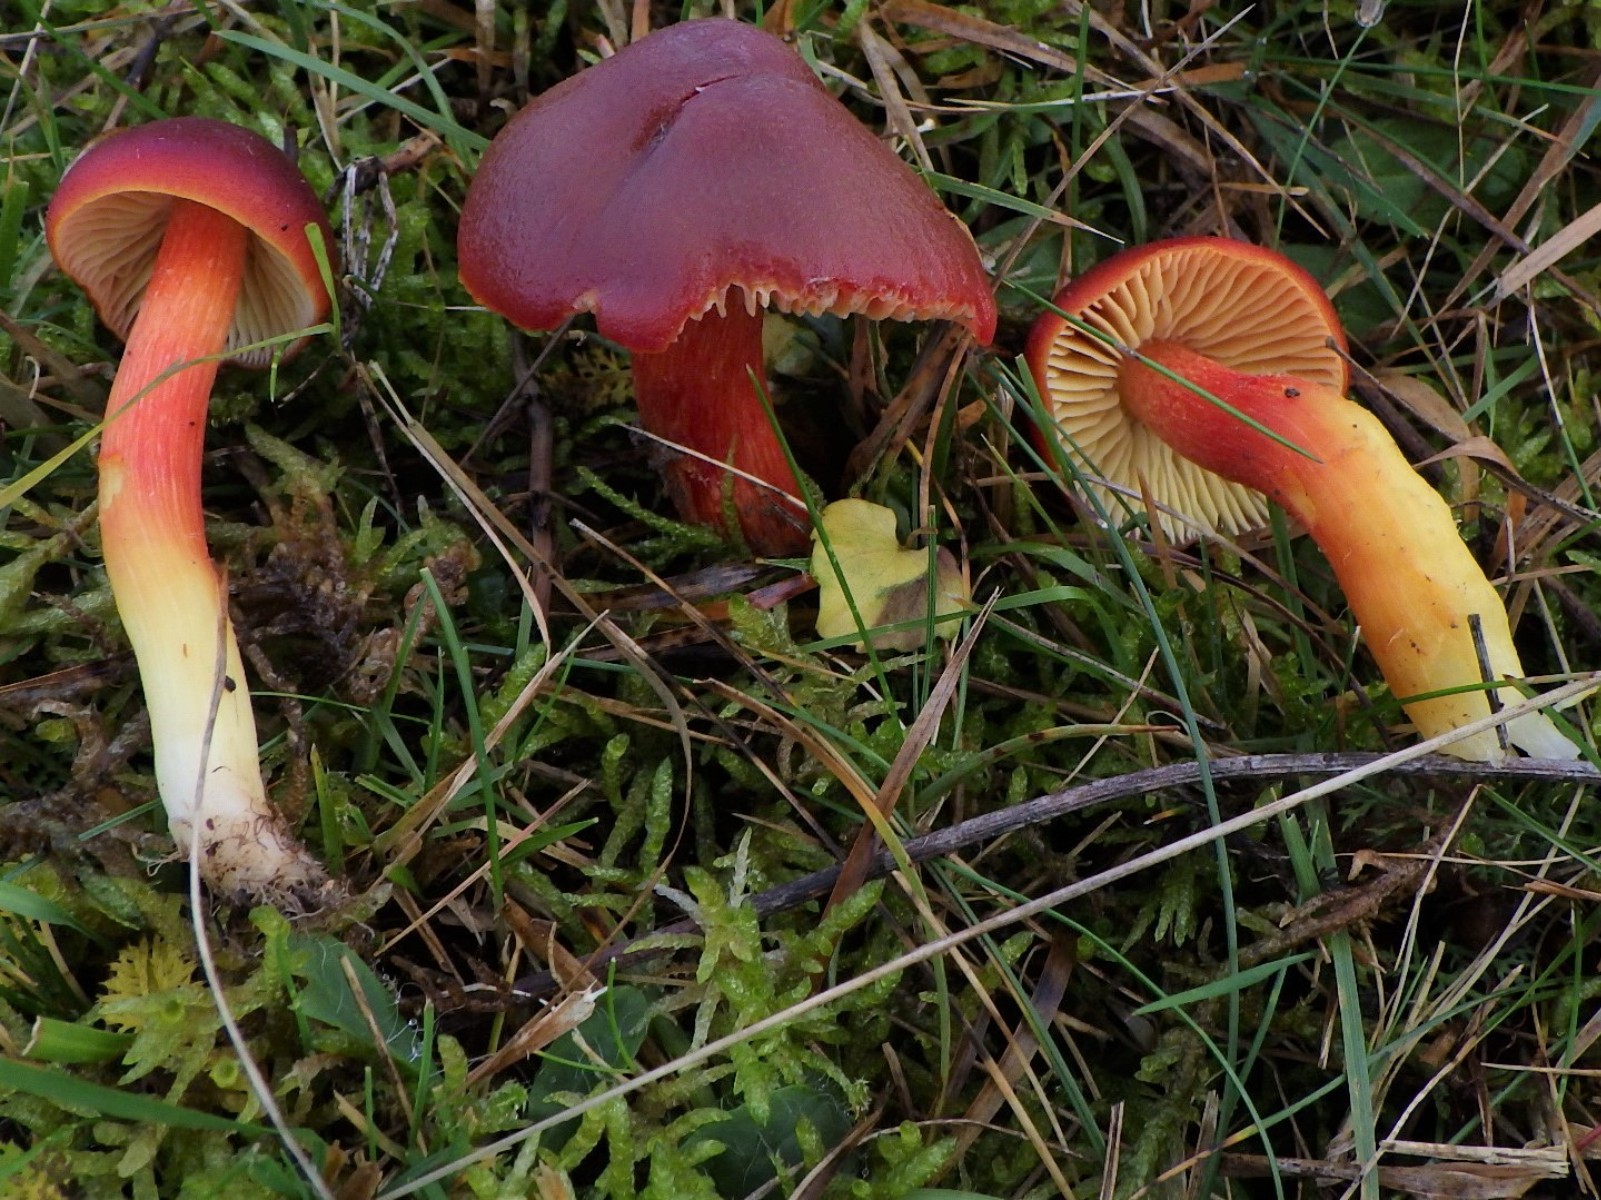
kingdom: Fungi
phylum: Basidiomycota
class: Agaricomycetes
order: Agaricales
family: Hygrophoraceae
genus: Hygrocybe
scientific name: Hygrocybe punicea
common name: skarlagen-vokshat
